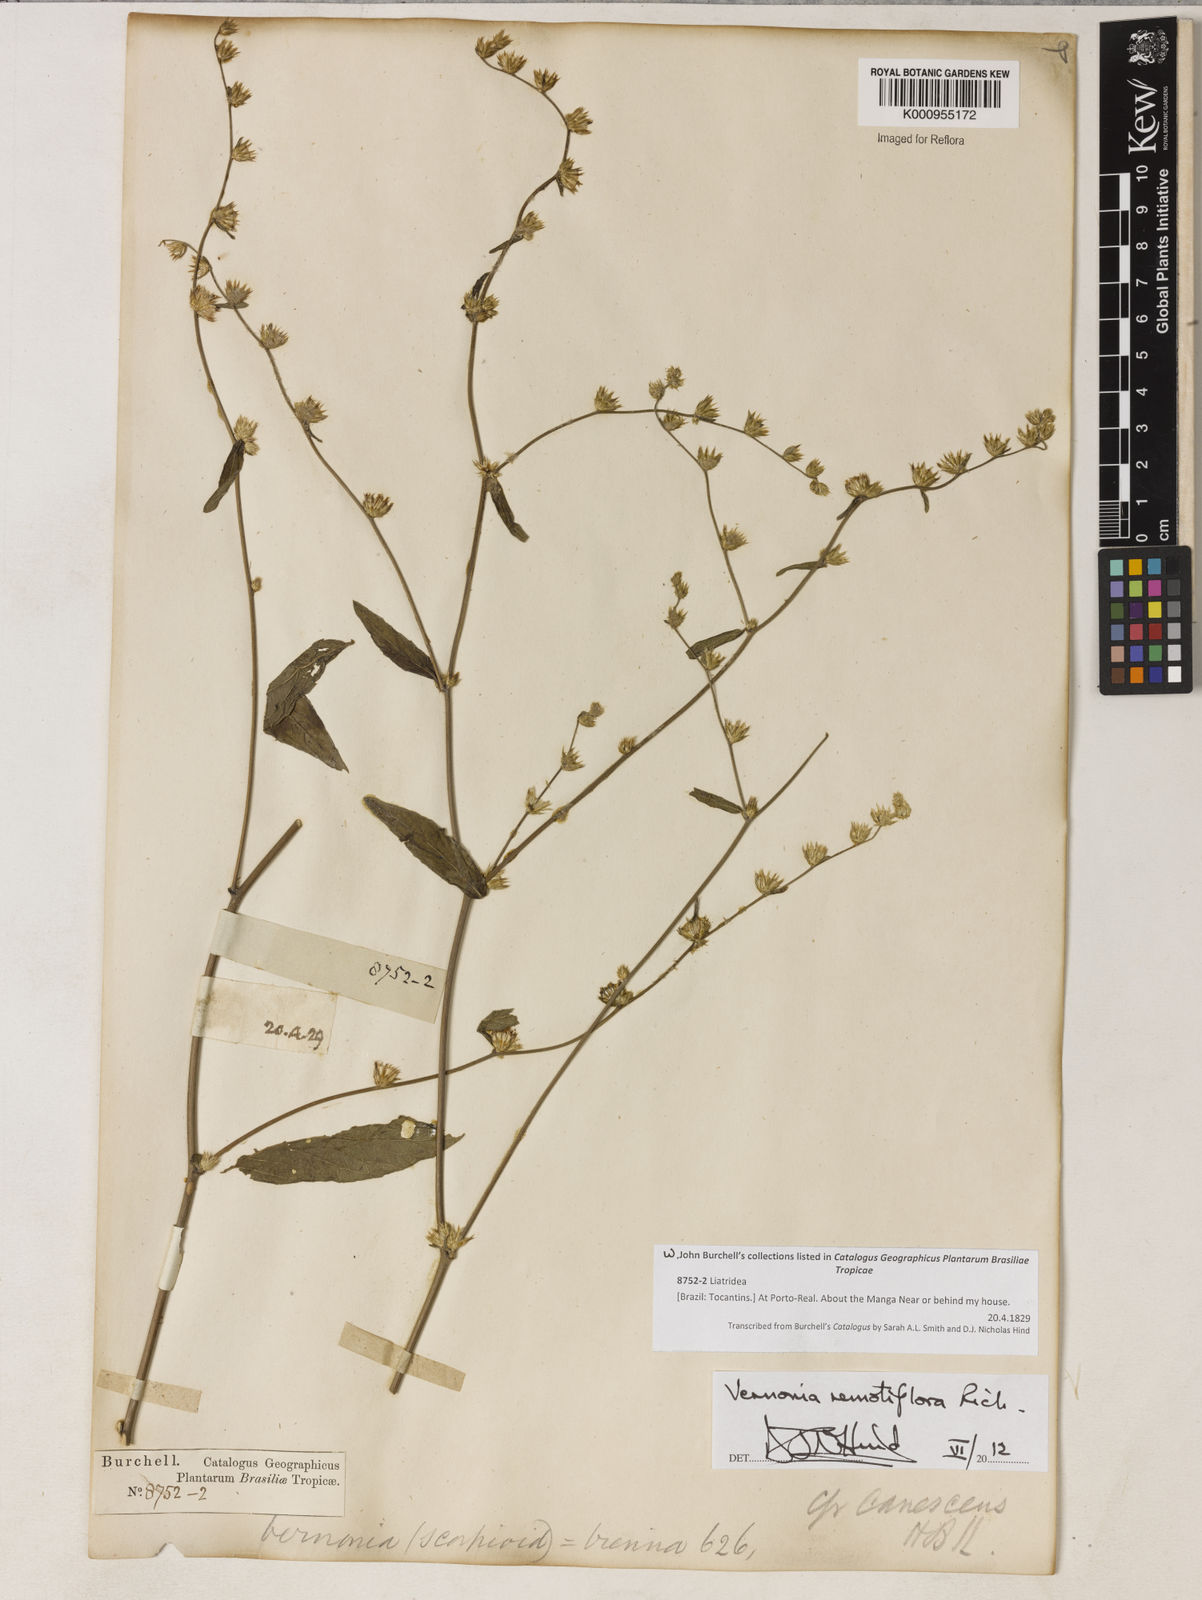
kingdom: Plantae
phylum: Tracheophyta
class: Magnoliopsida
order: Asterales
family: Asteraceae
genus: Lepidaploa
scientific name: Lepidaploa remotiflora
